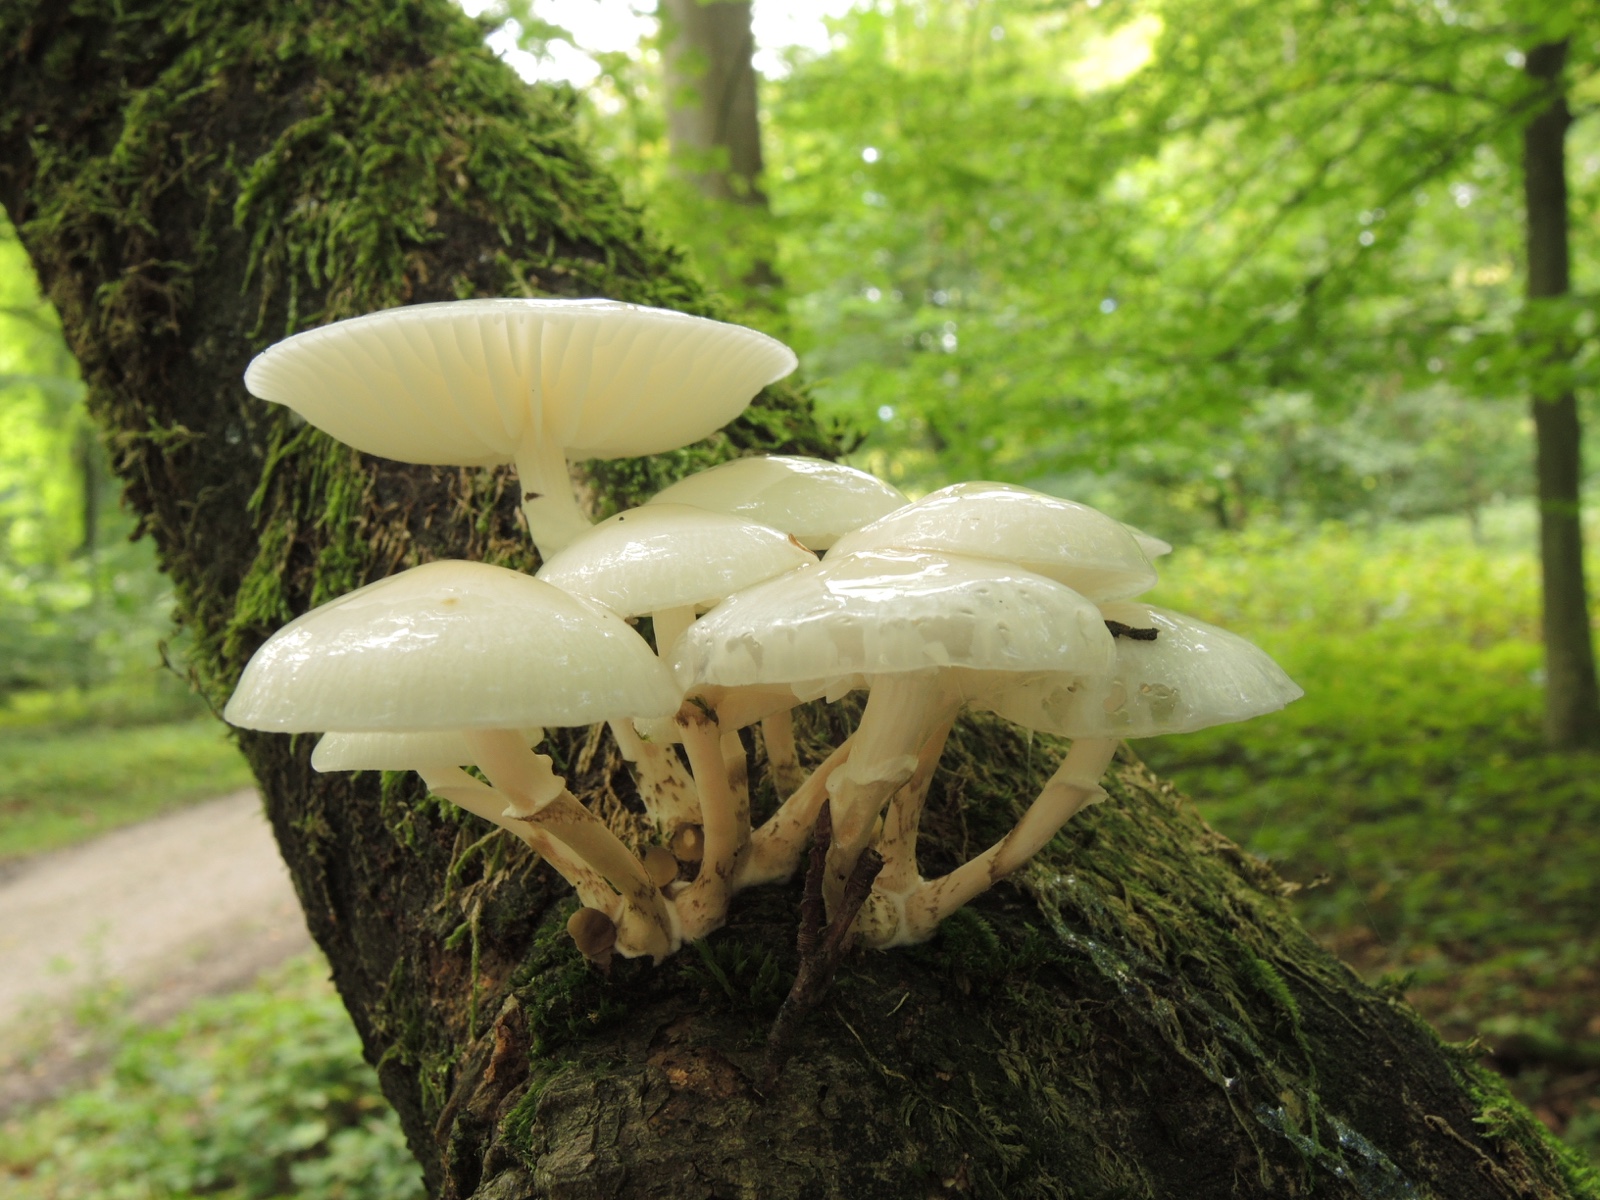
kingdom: Fungi
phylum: Basidiomycota
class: Agaricomycetes
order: Agaricales
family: Physalacriaceae
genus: Mucidula
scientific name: Mucidula mucida
